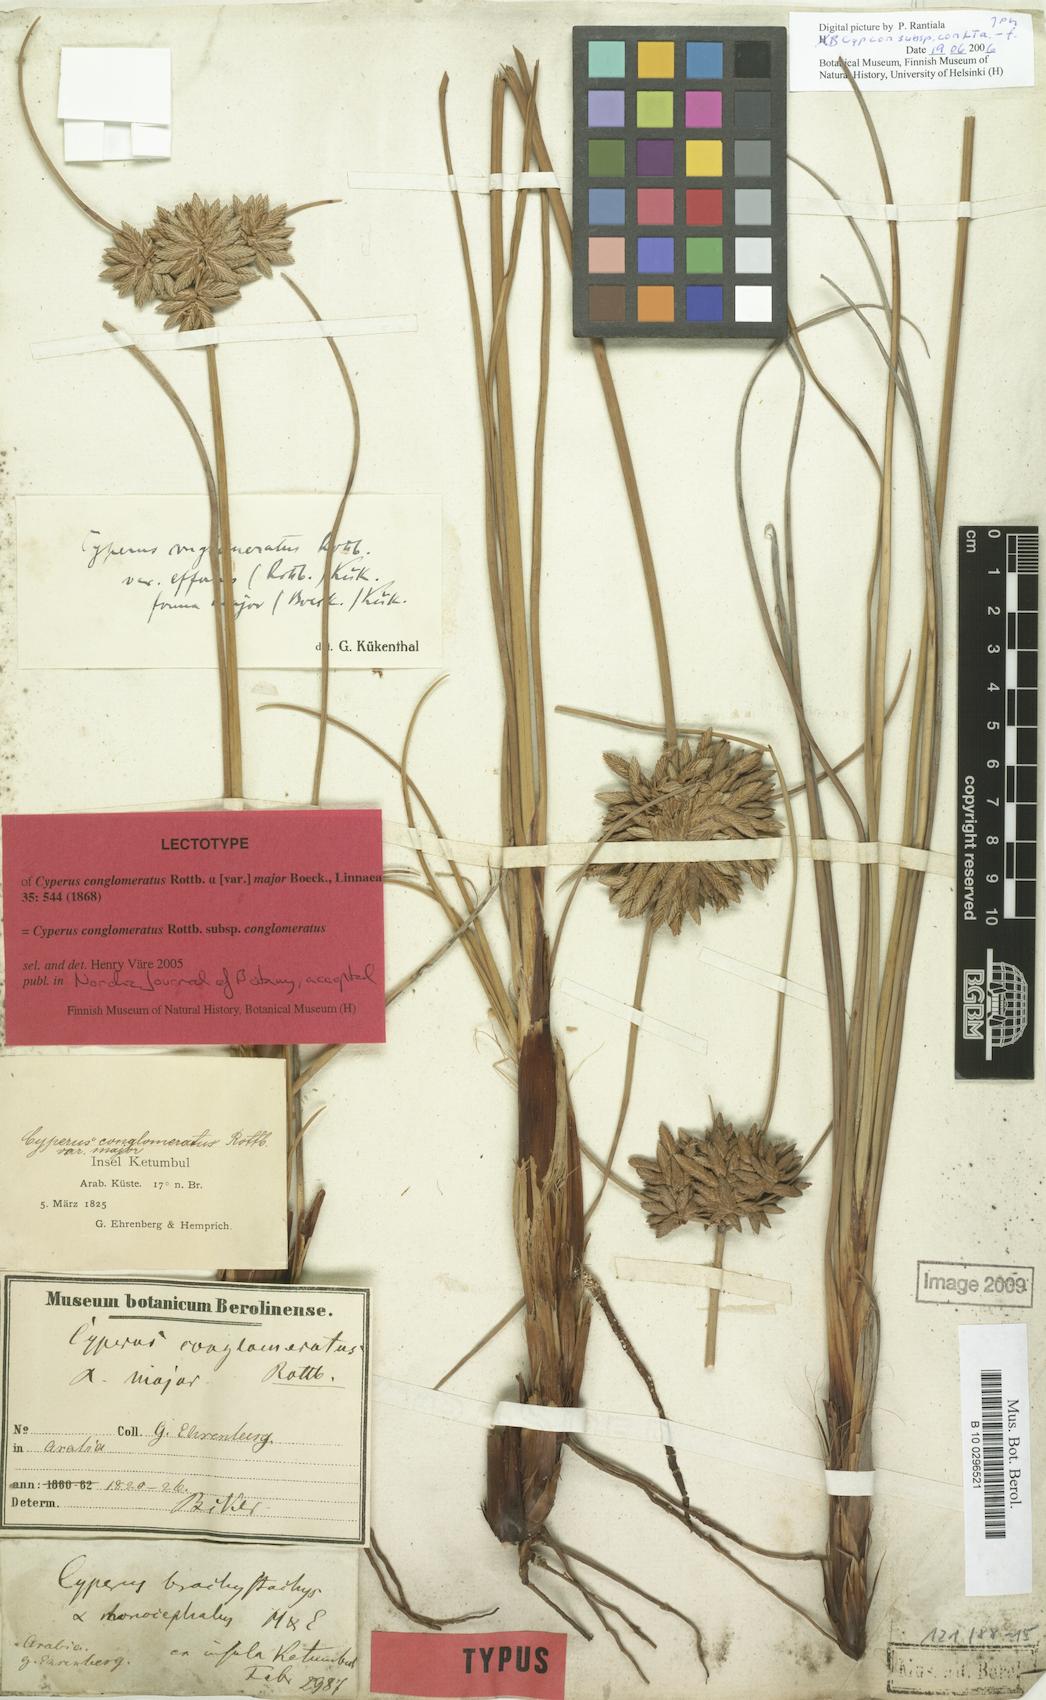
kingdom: Plantae
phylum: Tracheophyta
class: Liliopsida
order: Poales
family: Cyperaceae
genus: Cyperus
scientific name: Cyperus conglomeratus
